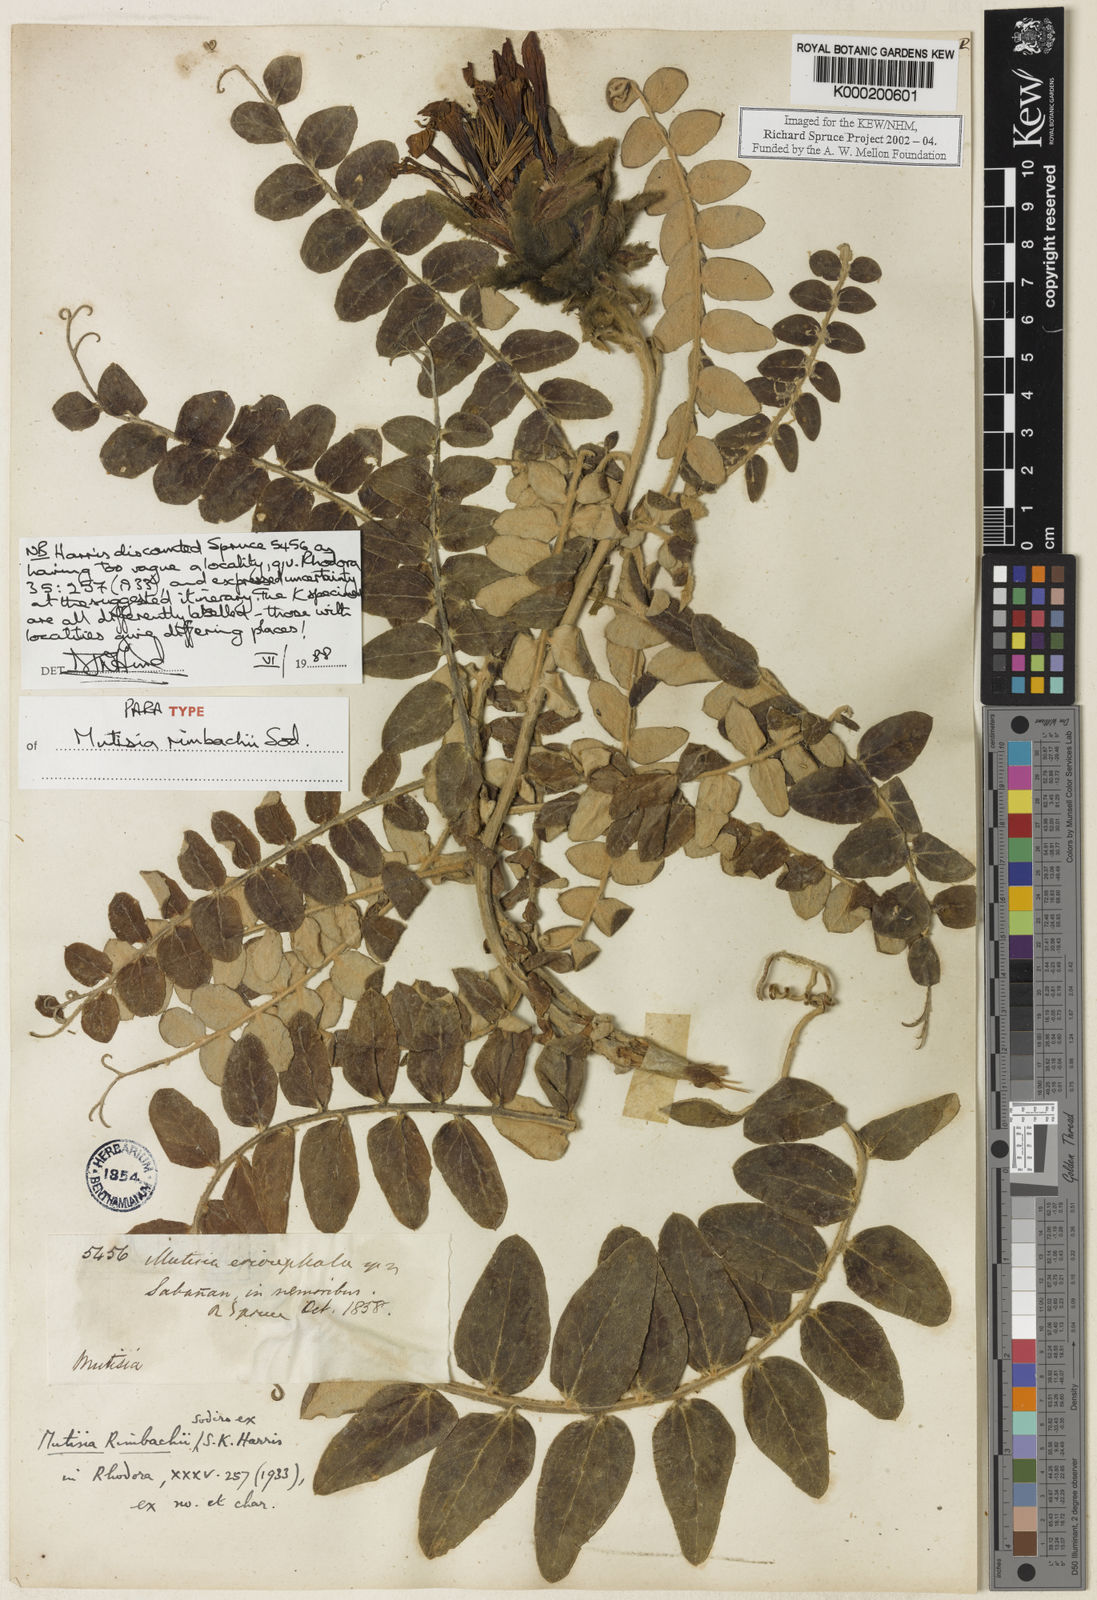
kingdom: Plantae
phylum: Tracheophyta
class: Magnoliopsida
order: Asterales
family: Asteraceae
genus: Mutisia
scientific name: Mutisia
